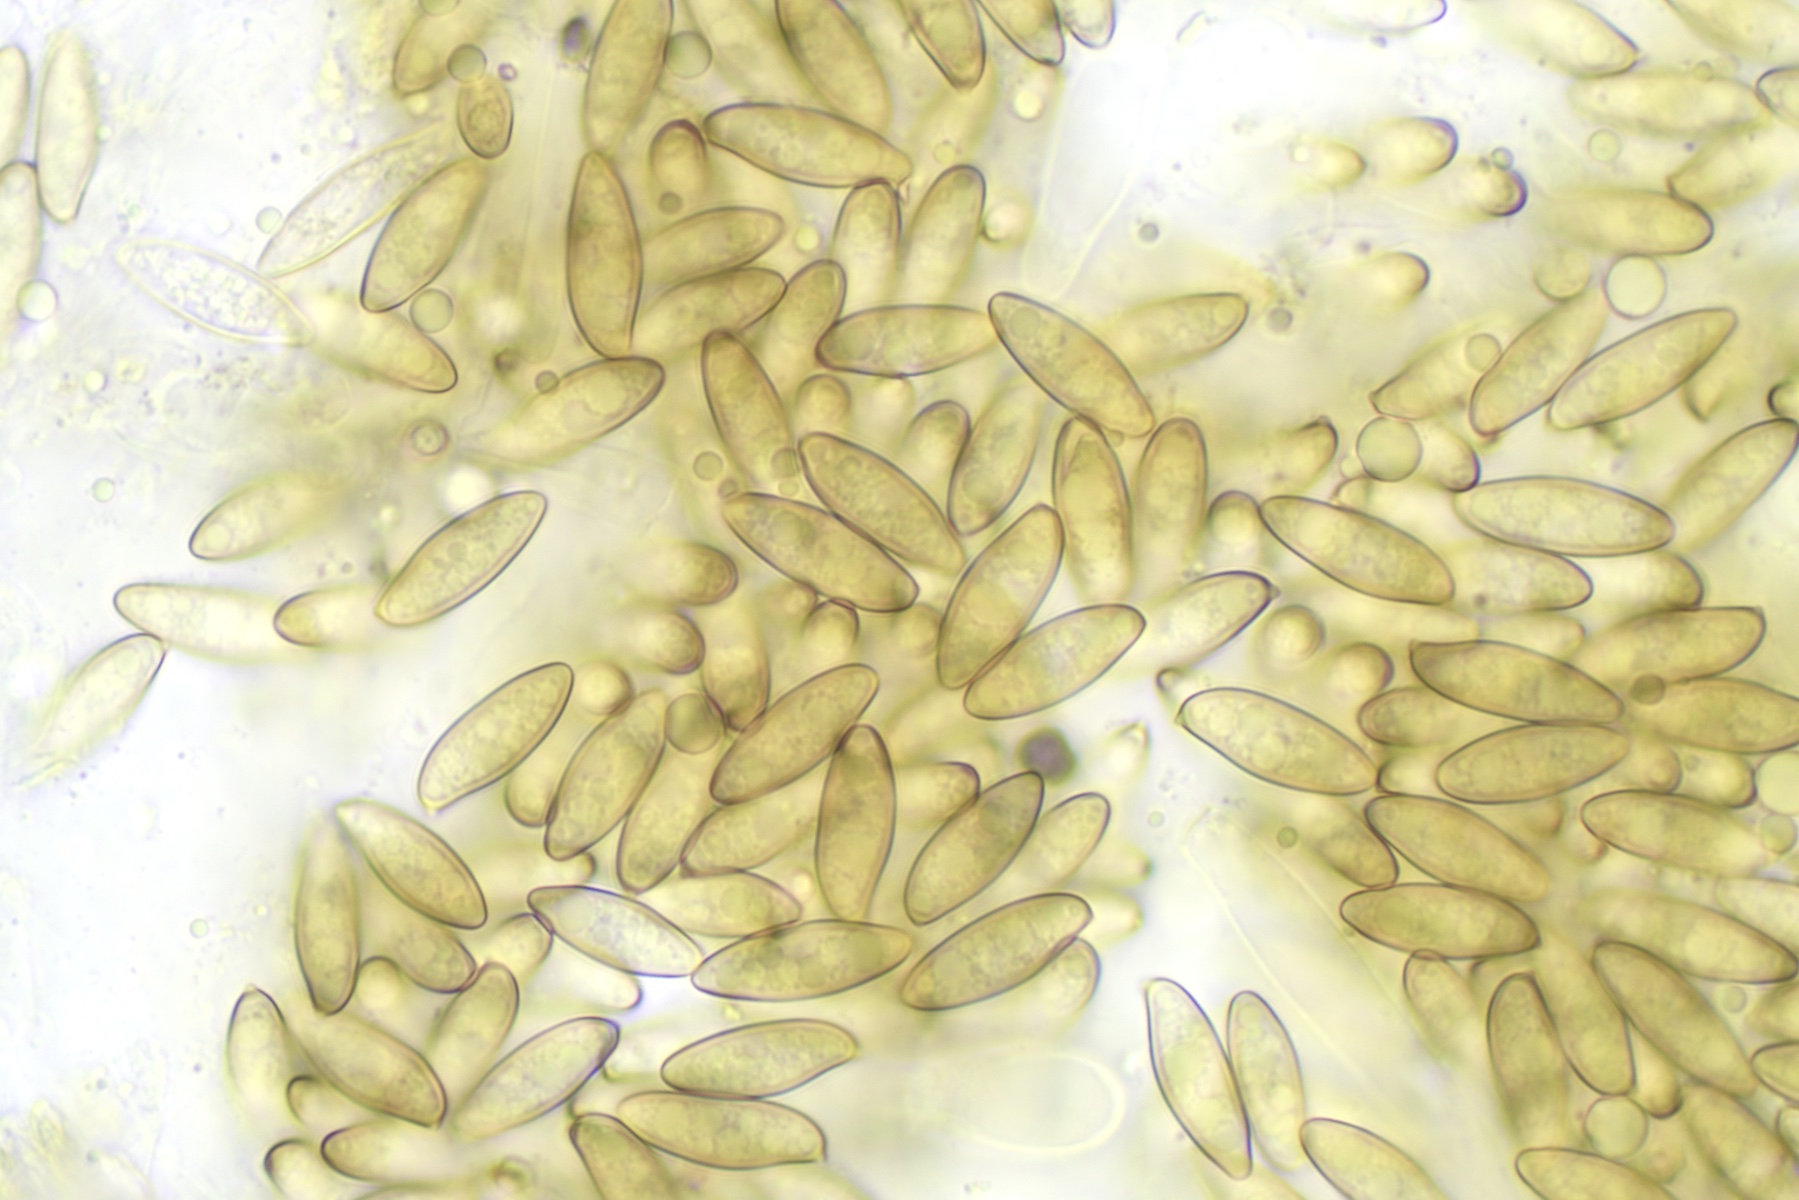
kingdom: Fungi
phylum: Basidiomycota
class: Agaricomycetes
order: Boletales
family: Boletaceae
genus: Leccinum
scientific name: Leccinum
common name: skælrørhat
